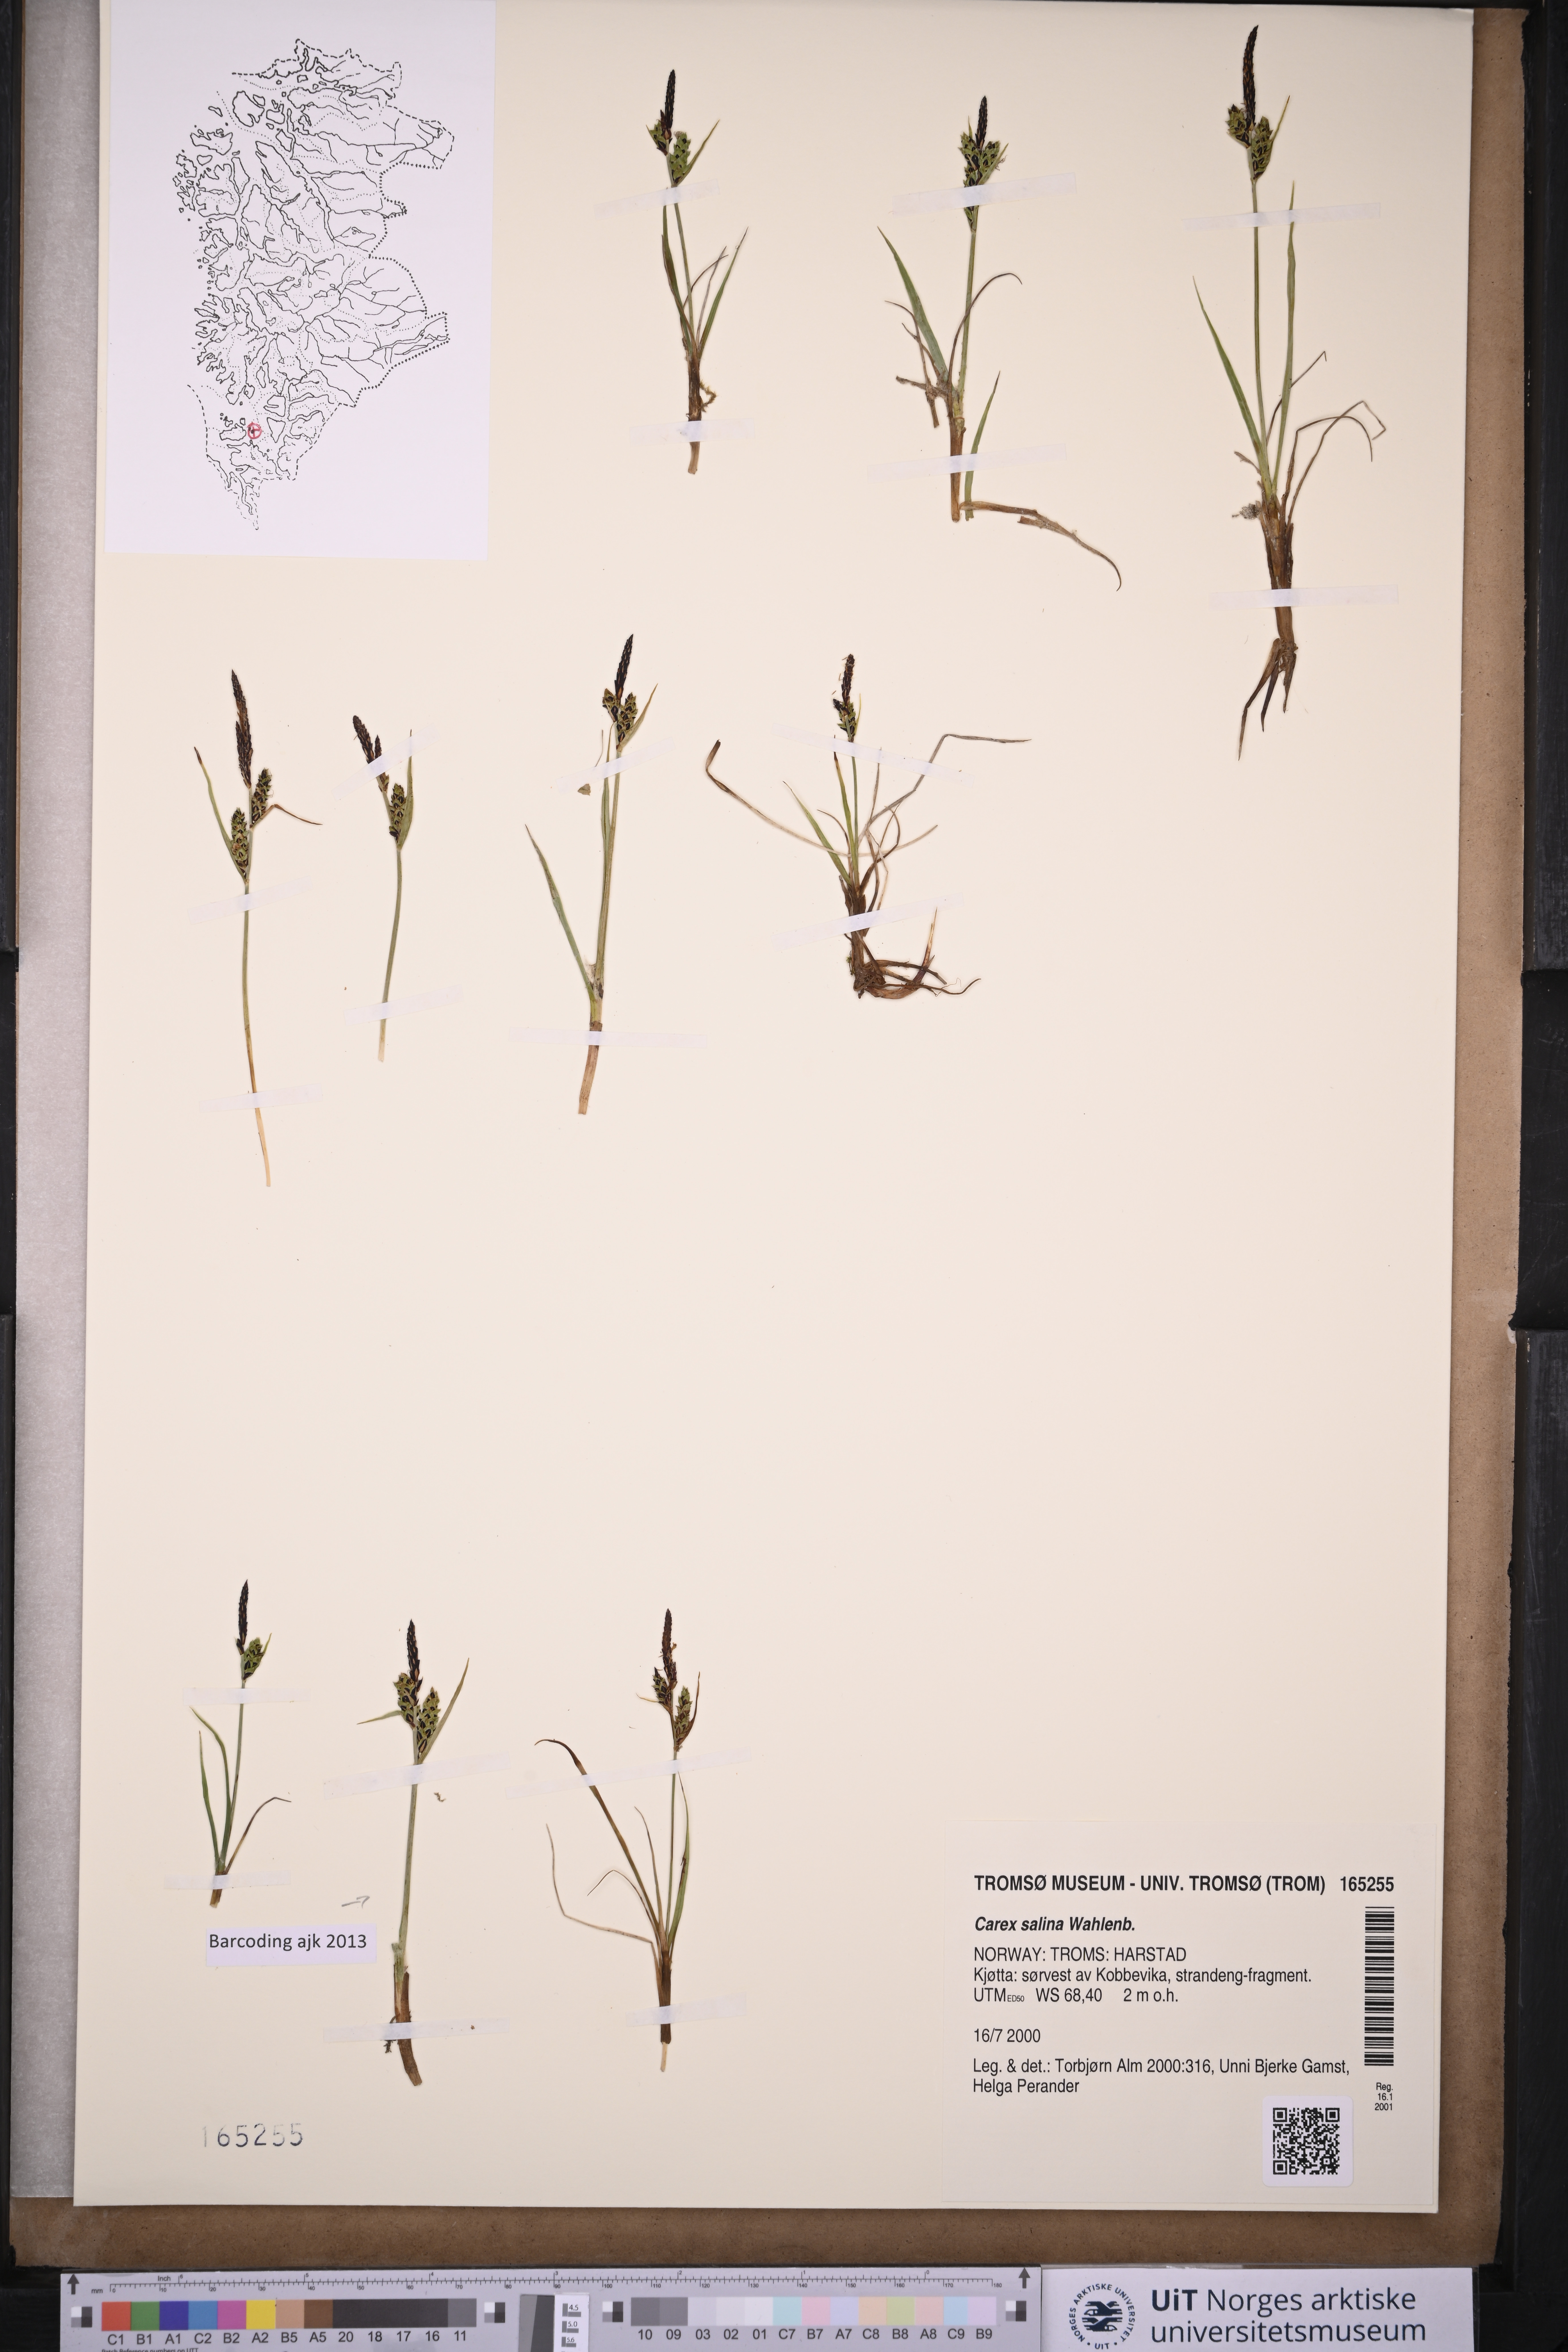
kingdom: Plantae
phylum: Tracheophyta
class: Liliopsida
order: Poales
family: Cyperaceae
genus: Carex
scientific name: Carex salina
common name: Saltmarsh sedge
